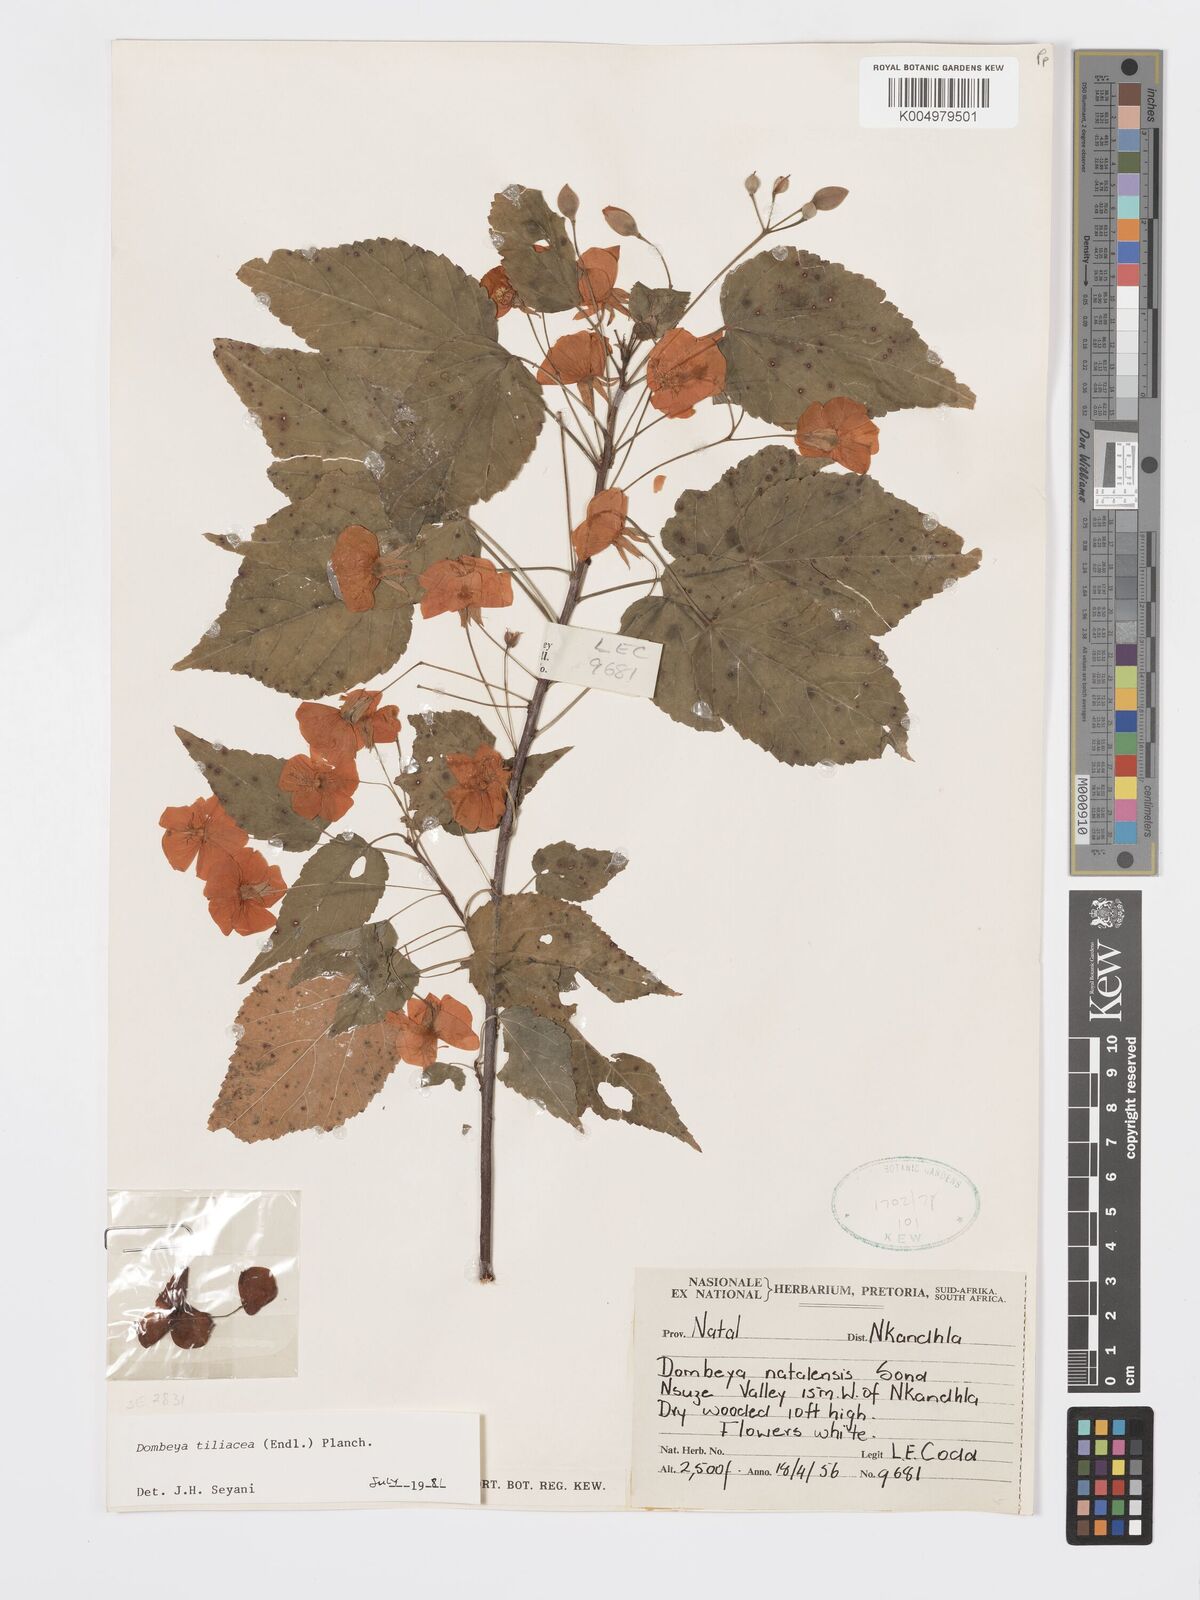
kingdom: Plantae
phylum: Tracheophyta
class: Magnoliopsida
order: Malvales
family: Malvaceae
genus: Dombeya
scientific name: Dombeya tiliacea
